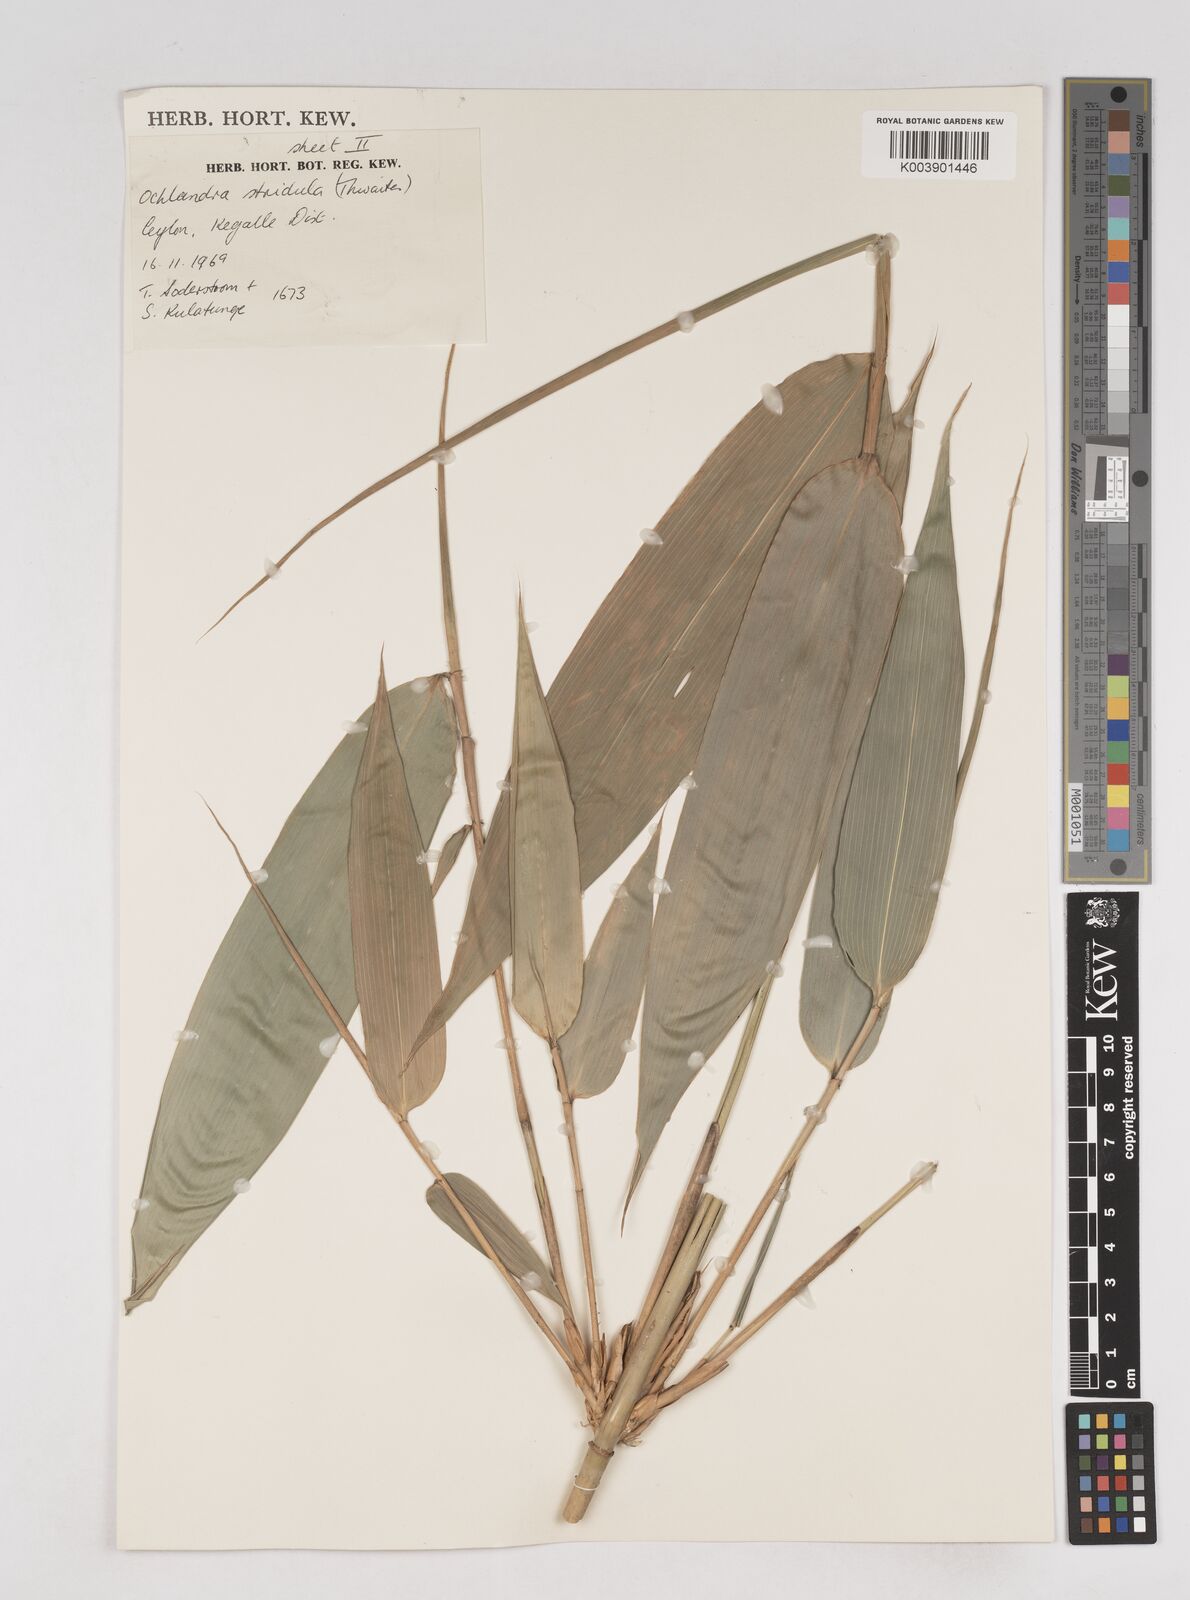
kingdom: Plantae
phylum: Tracheophyta
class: Liliopsida
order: Poales
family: Poaceae
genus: Ochlandra
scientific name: Ochlandra stridula
